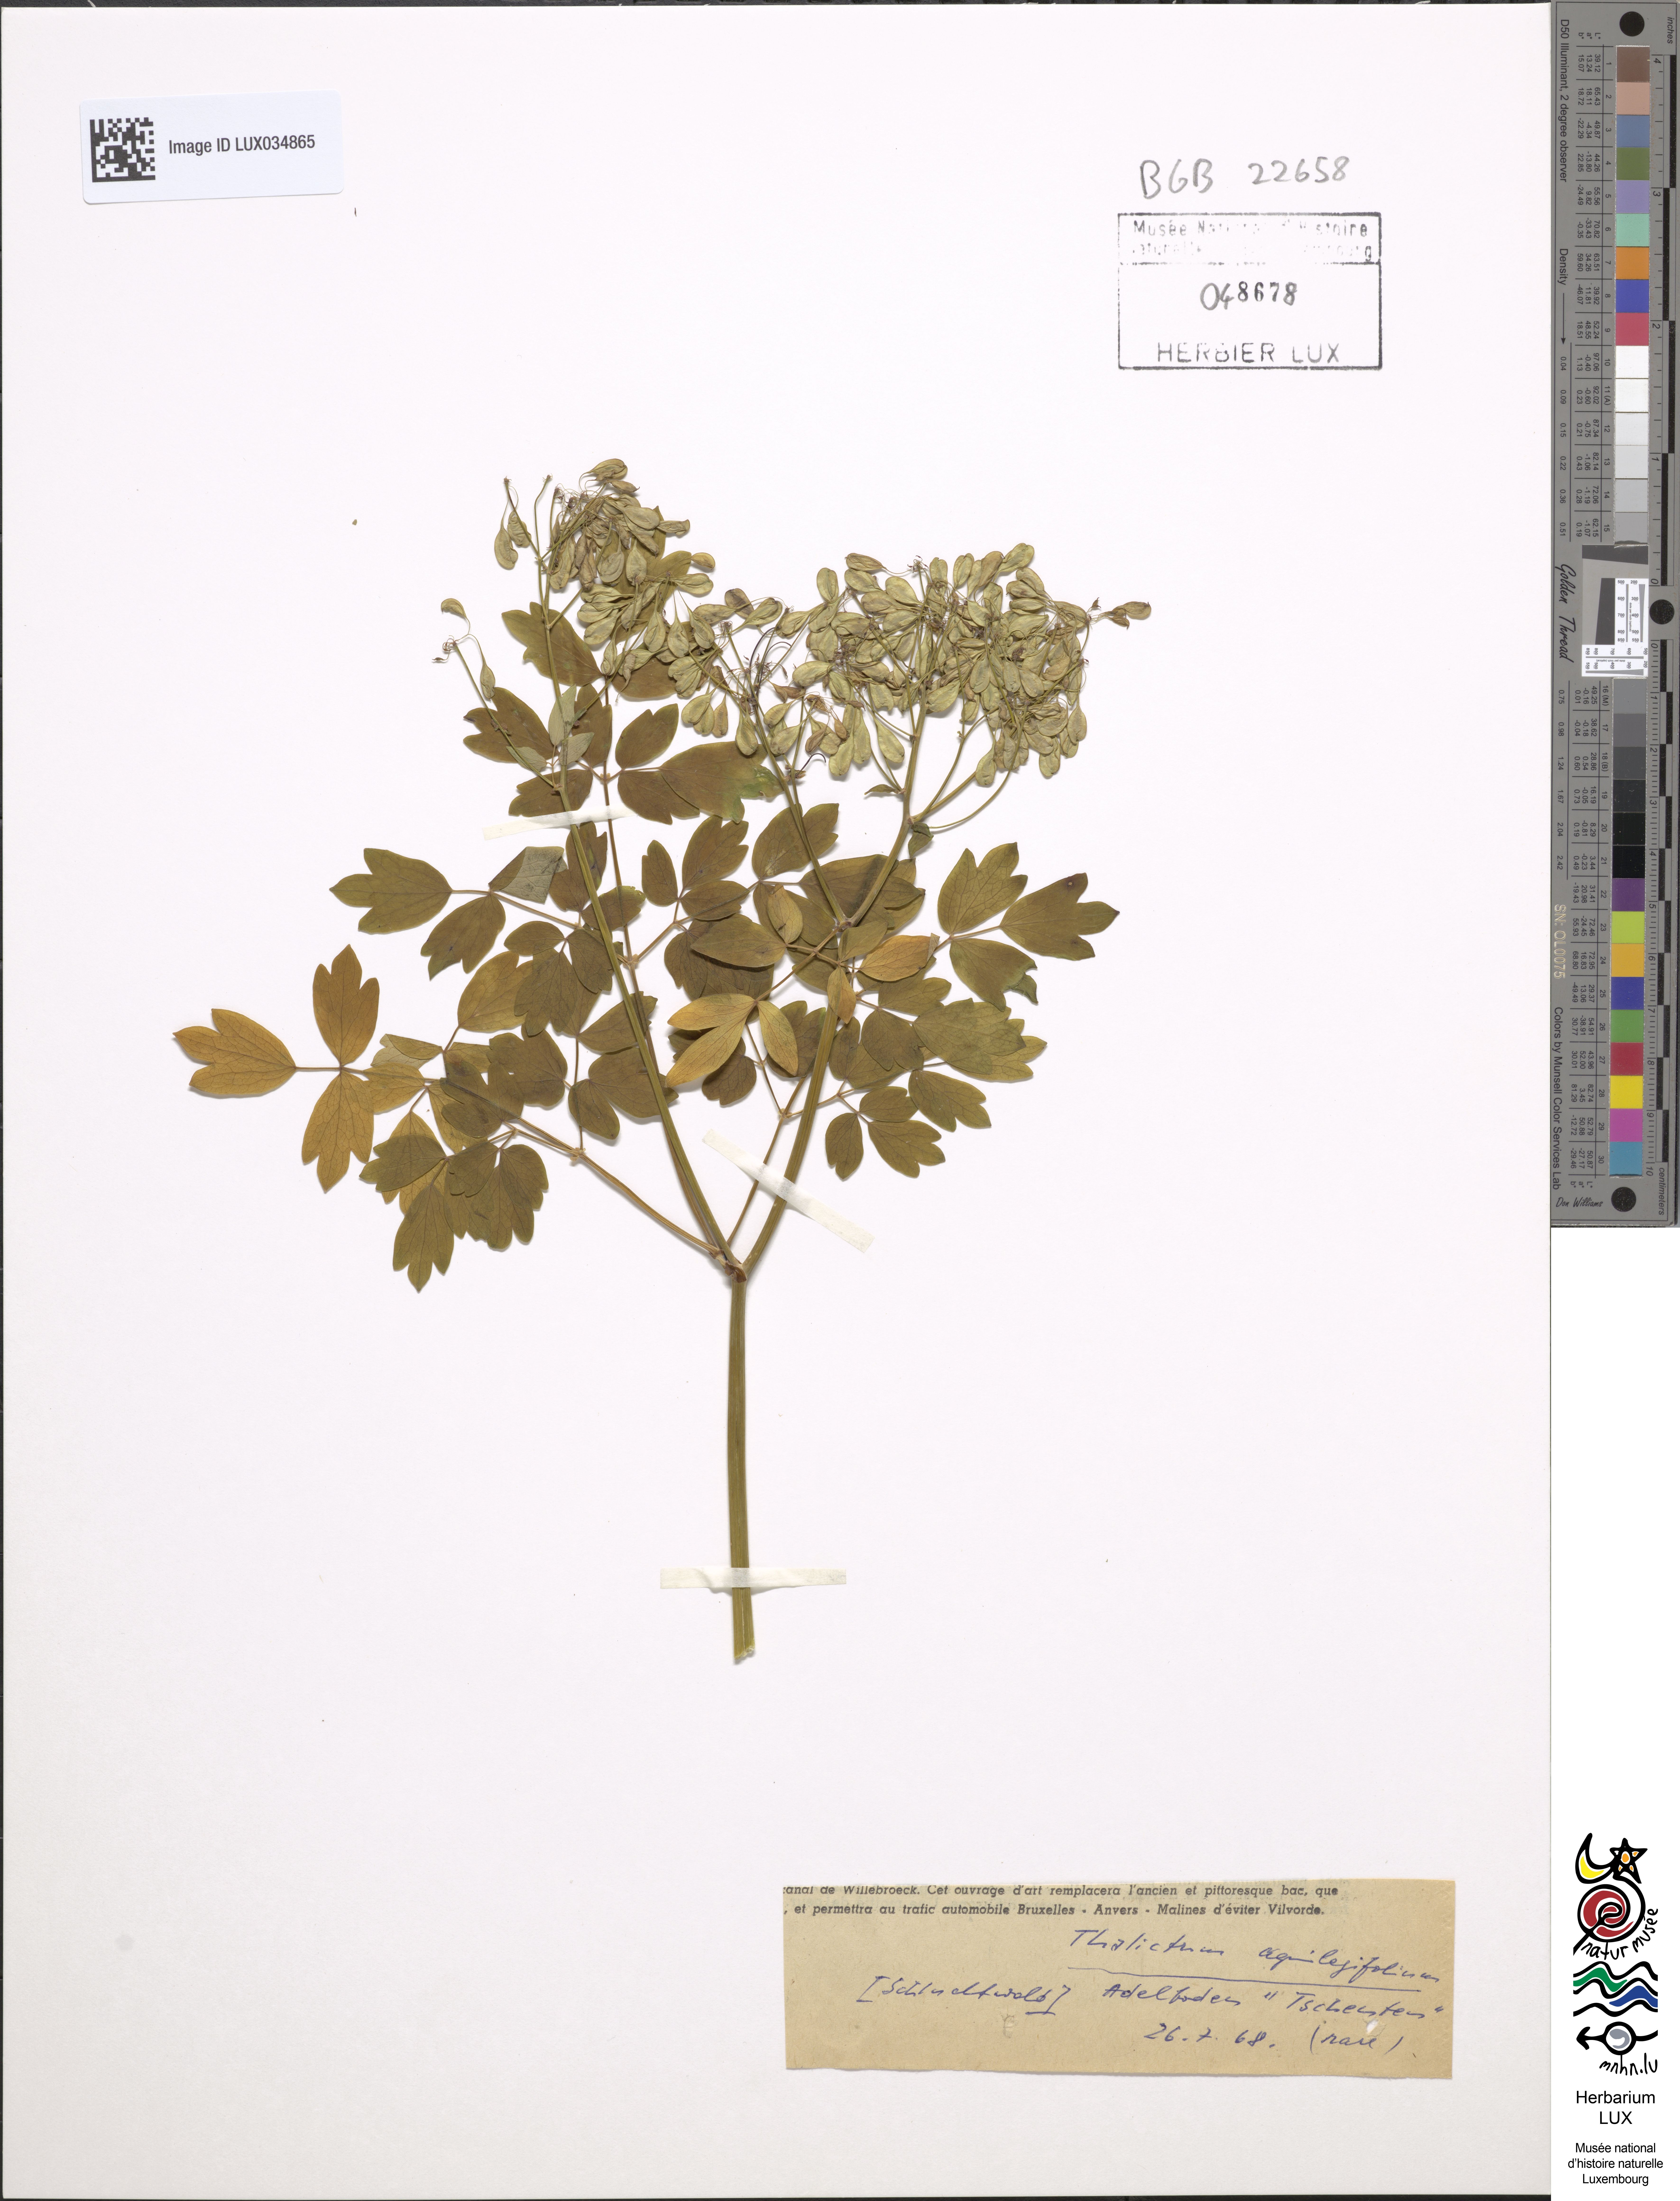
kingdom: Plantae
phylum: Tracheophyta
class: Magnoliopsida
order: Ranunculales
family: Ranunculaceae
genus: Thalictrum
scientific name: Thalictrum aquilegiifolium
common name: French meadow-rue
